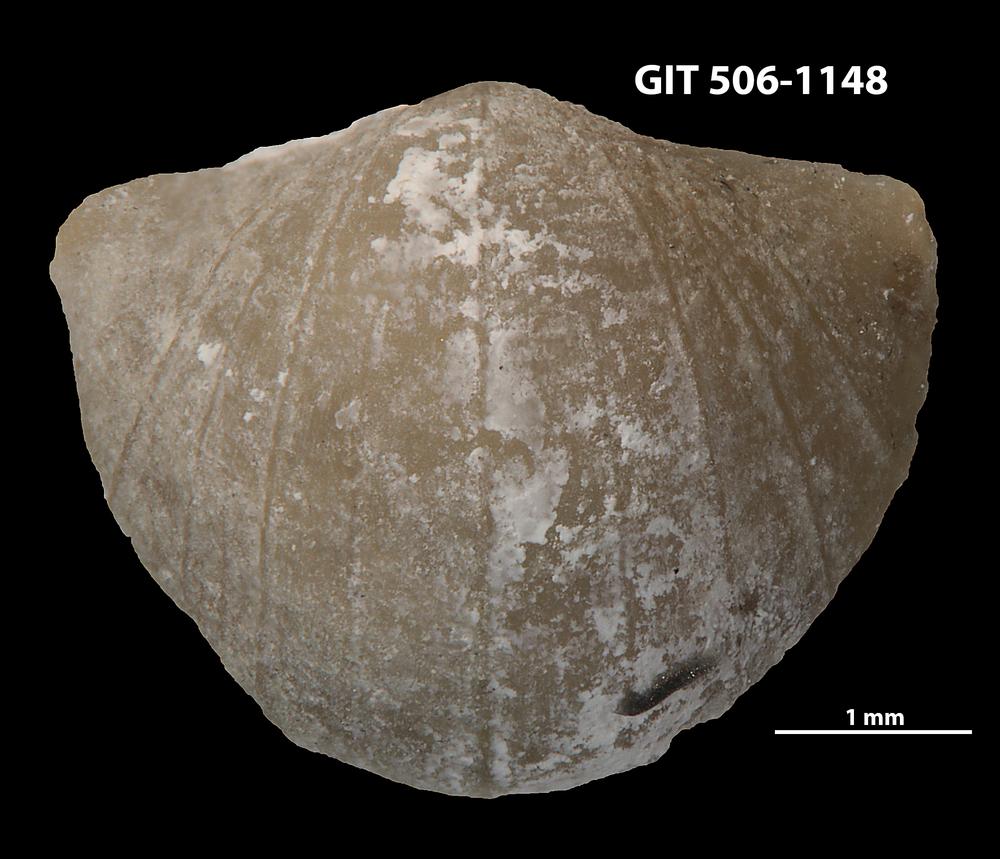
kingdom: Animalia
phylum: Brachiopoda
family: Leptellinidae
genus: Leangella
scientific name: Leangella Plectambonites scissa
